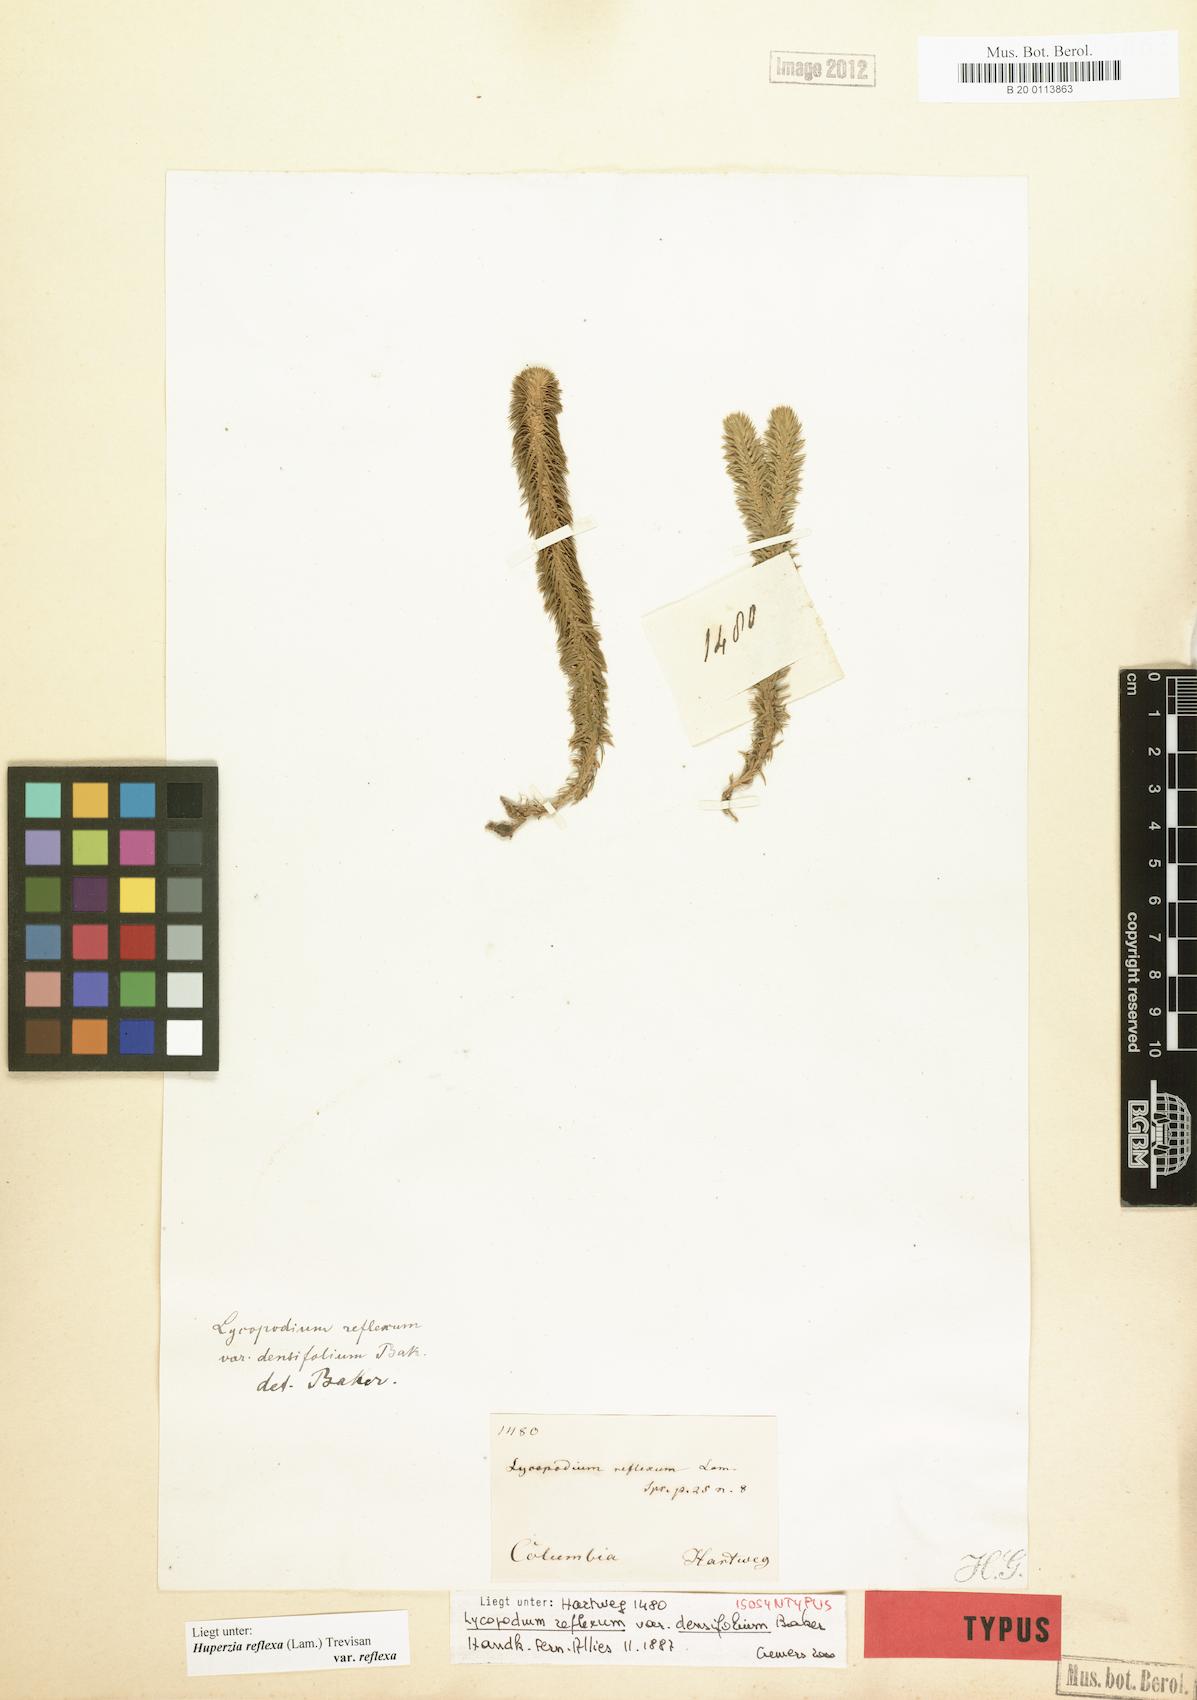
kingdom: Plantae
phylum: Tracheophyta
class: Lycopodiopsida
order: Lycopodiales
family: Lycopodiaceae
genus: Phlegmariurus
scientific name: Phlegmariurus reflexus
